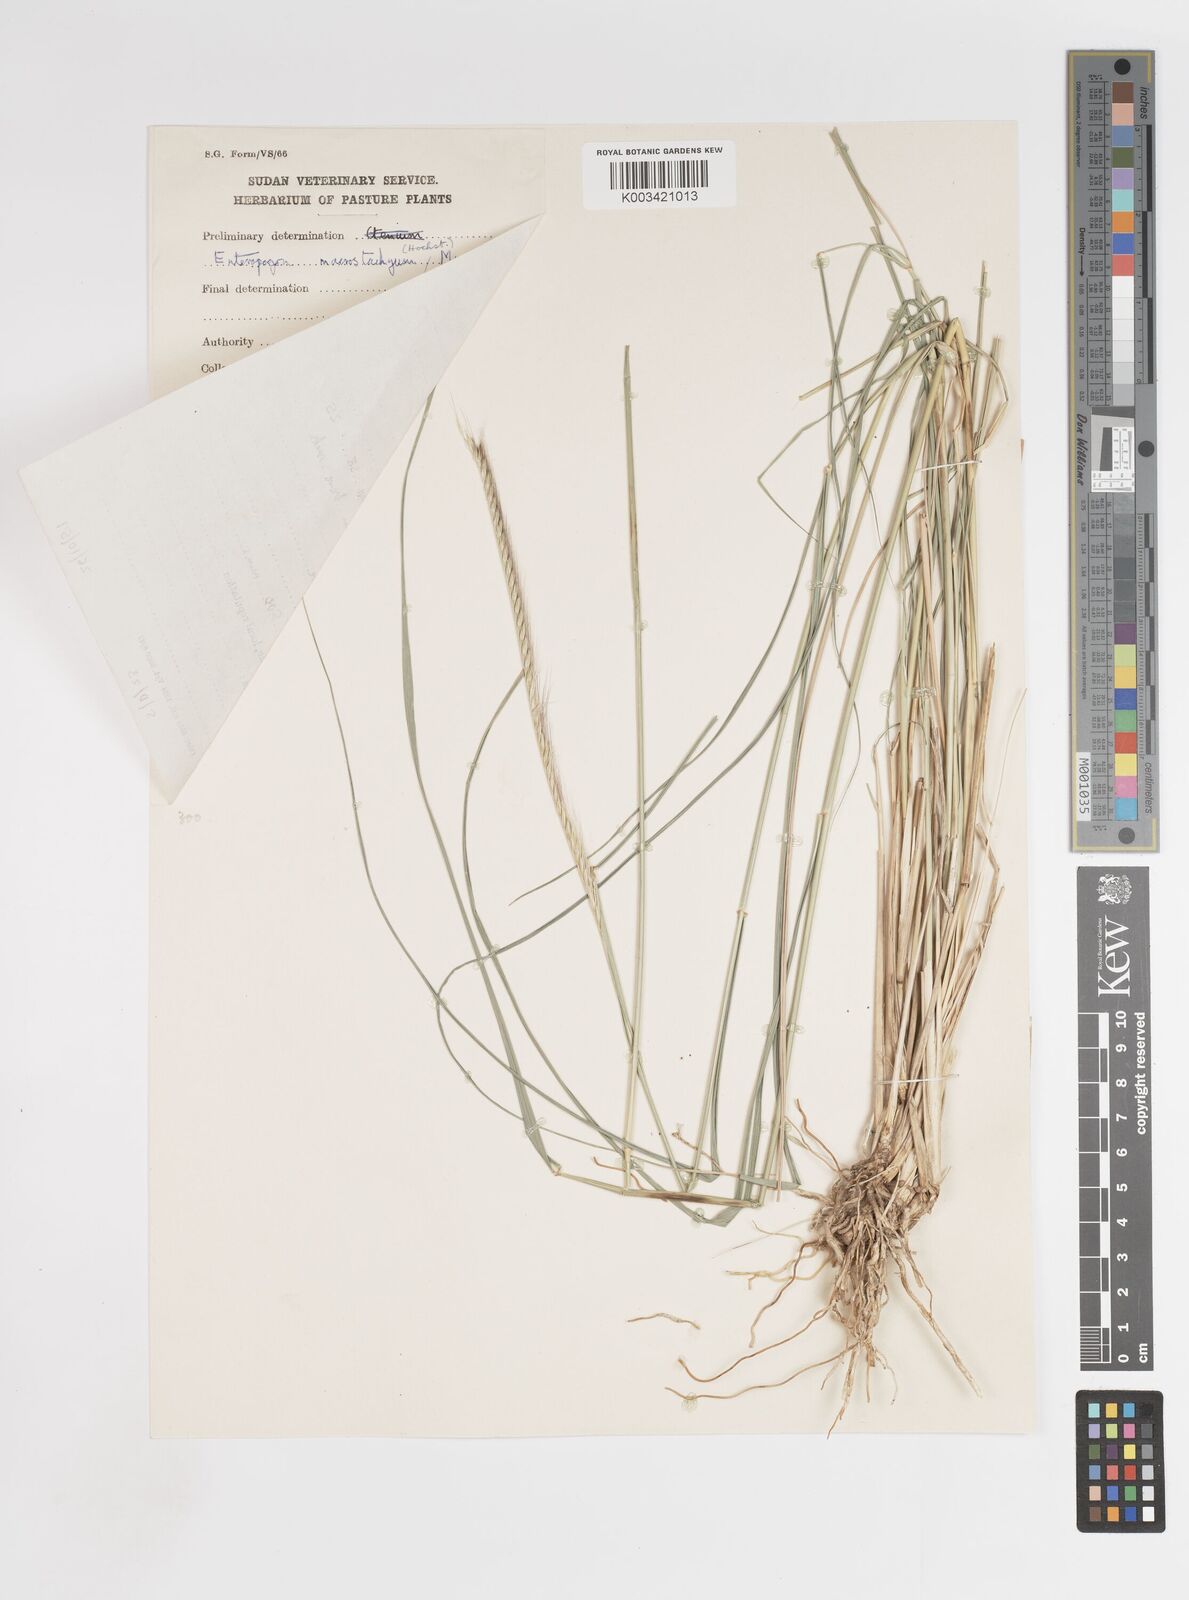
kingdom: Plantae
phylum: Tracheophyta
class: Liliopsida
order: Poales
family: Poaceae
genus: Enteropogon
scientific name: Enteropogon macrostachyus
